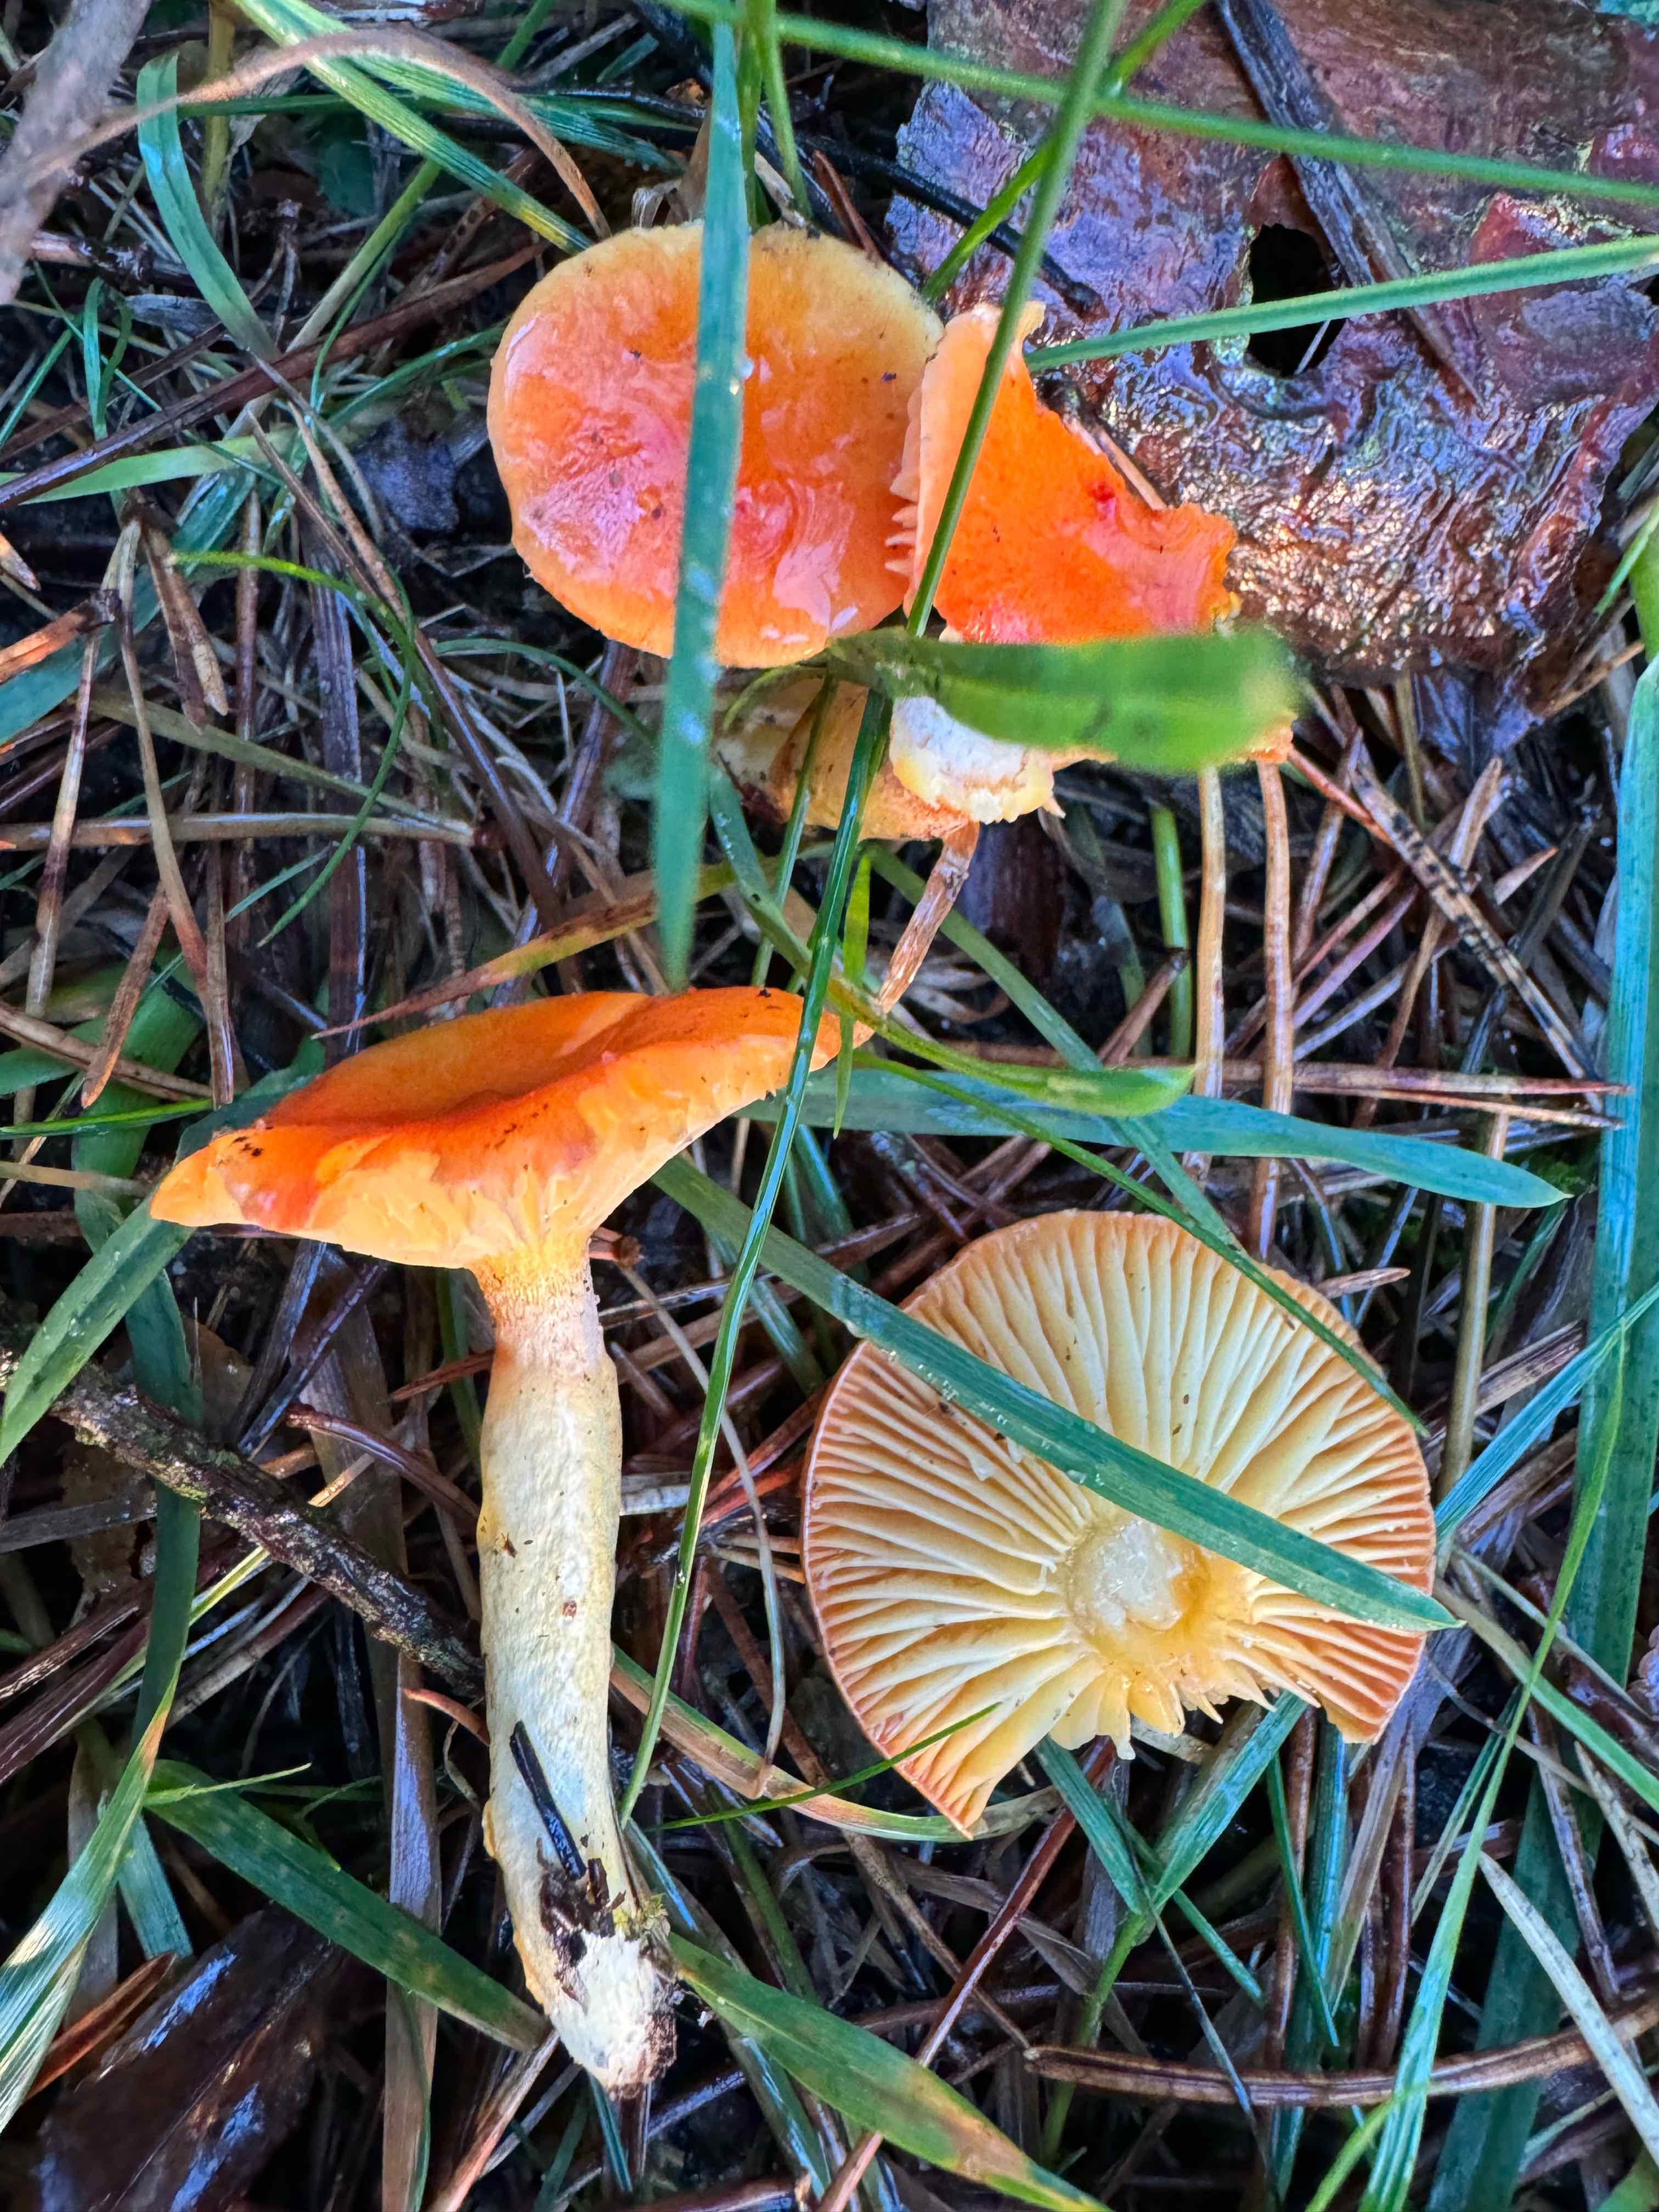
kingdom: Fungi
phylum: Basidiomycota
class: Agaricomycetes
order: Agaricales
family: Hygrophoraceae
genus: Hygrophorus
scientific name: Hygrophorus hypothejus
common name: gylden sneglehat
